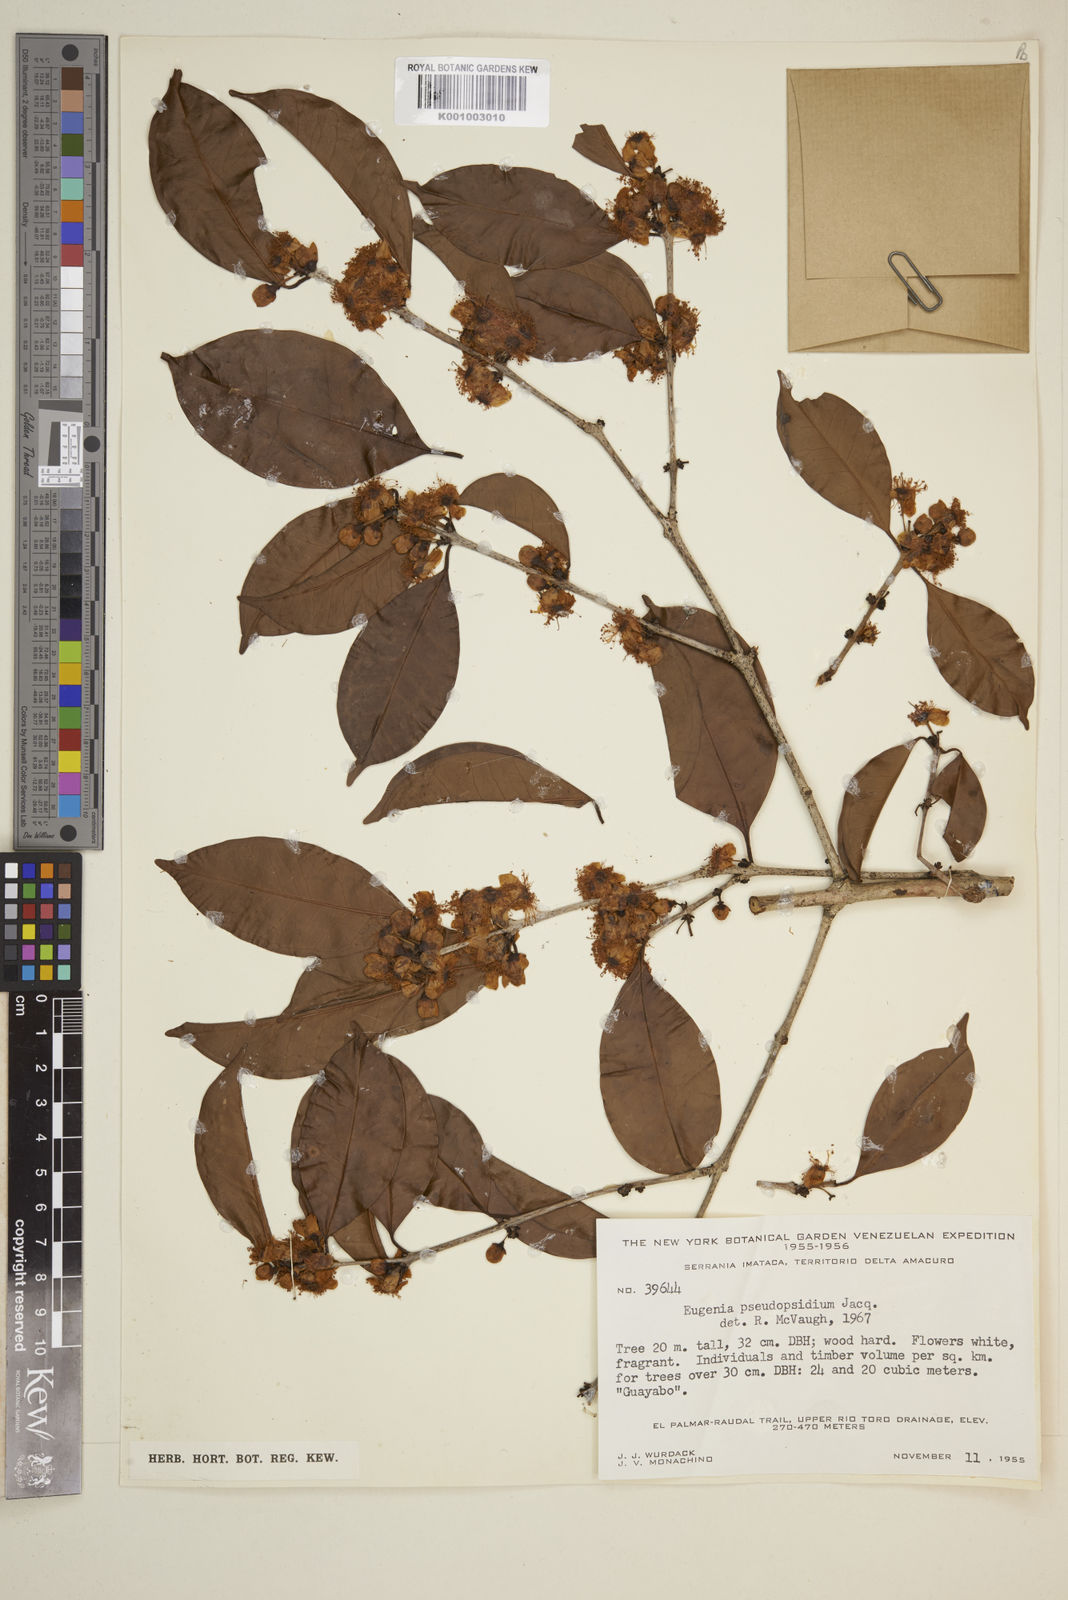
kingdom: Plantae
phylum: Tracheophyta
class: Magnoliopsida
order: Myrtales
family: Myrtaceae
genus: Eugenia
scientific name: Eugenia pseudopsidium
